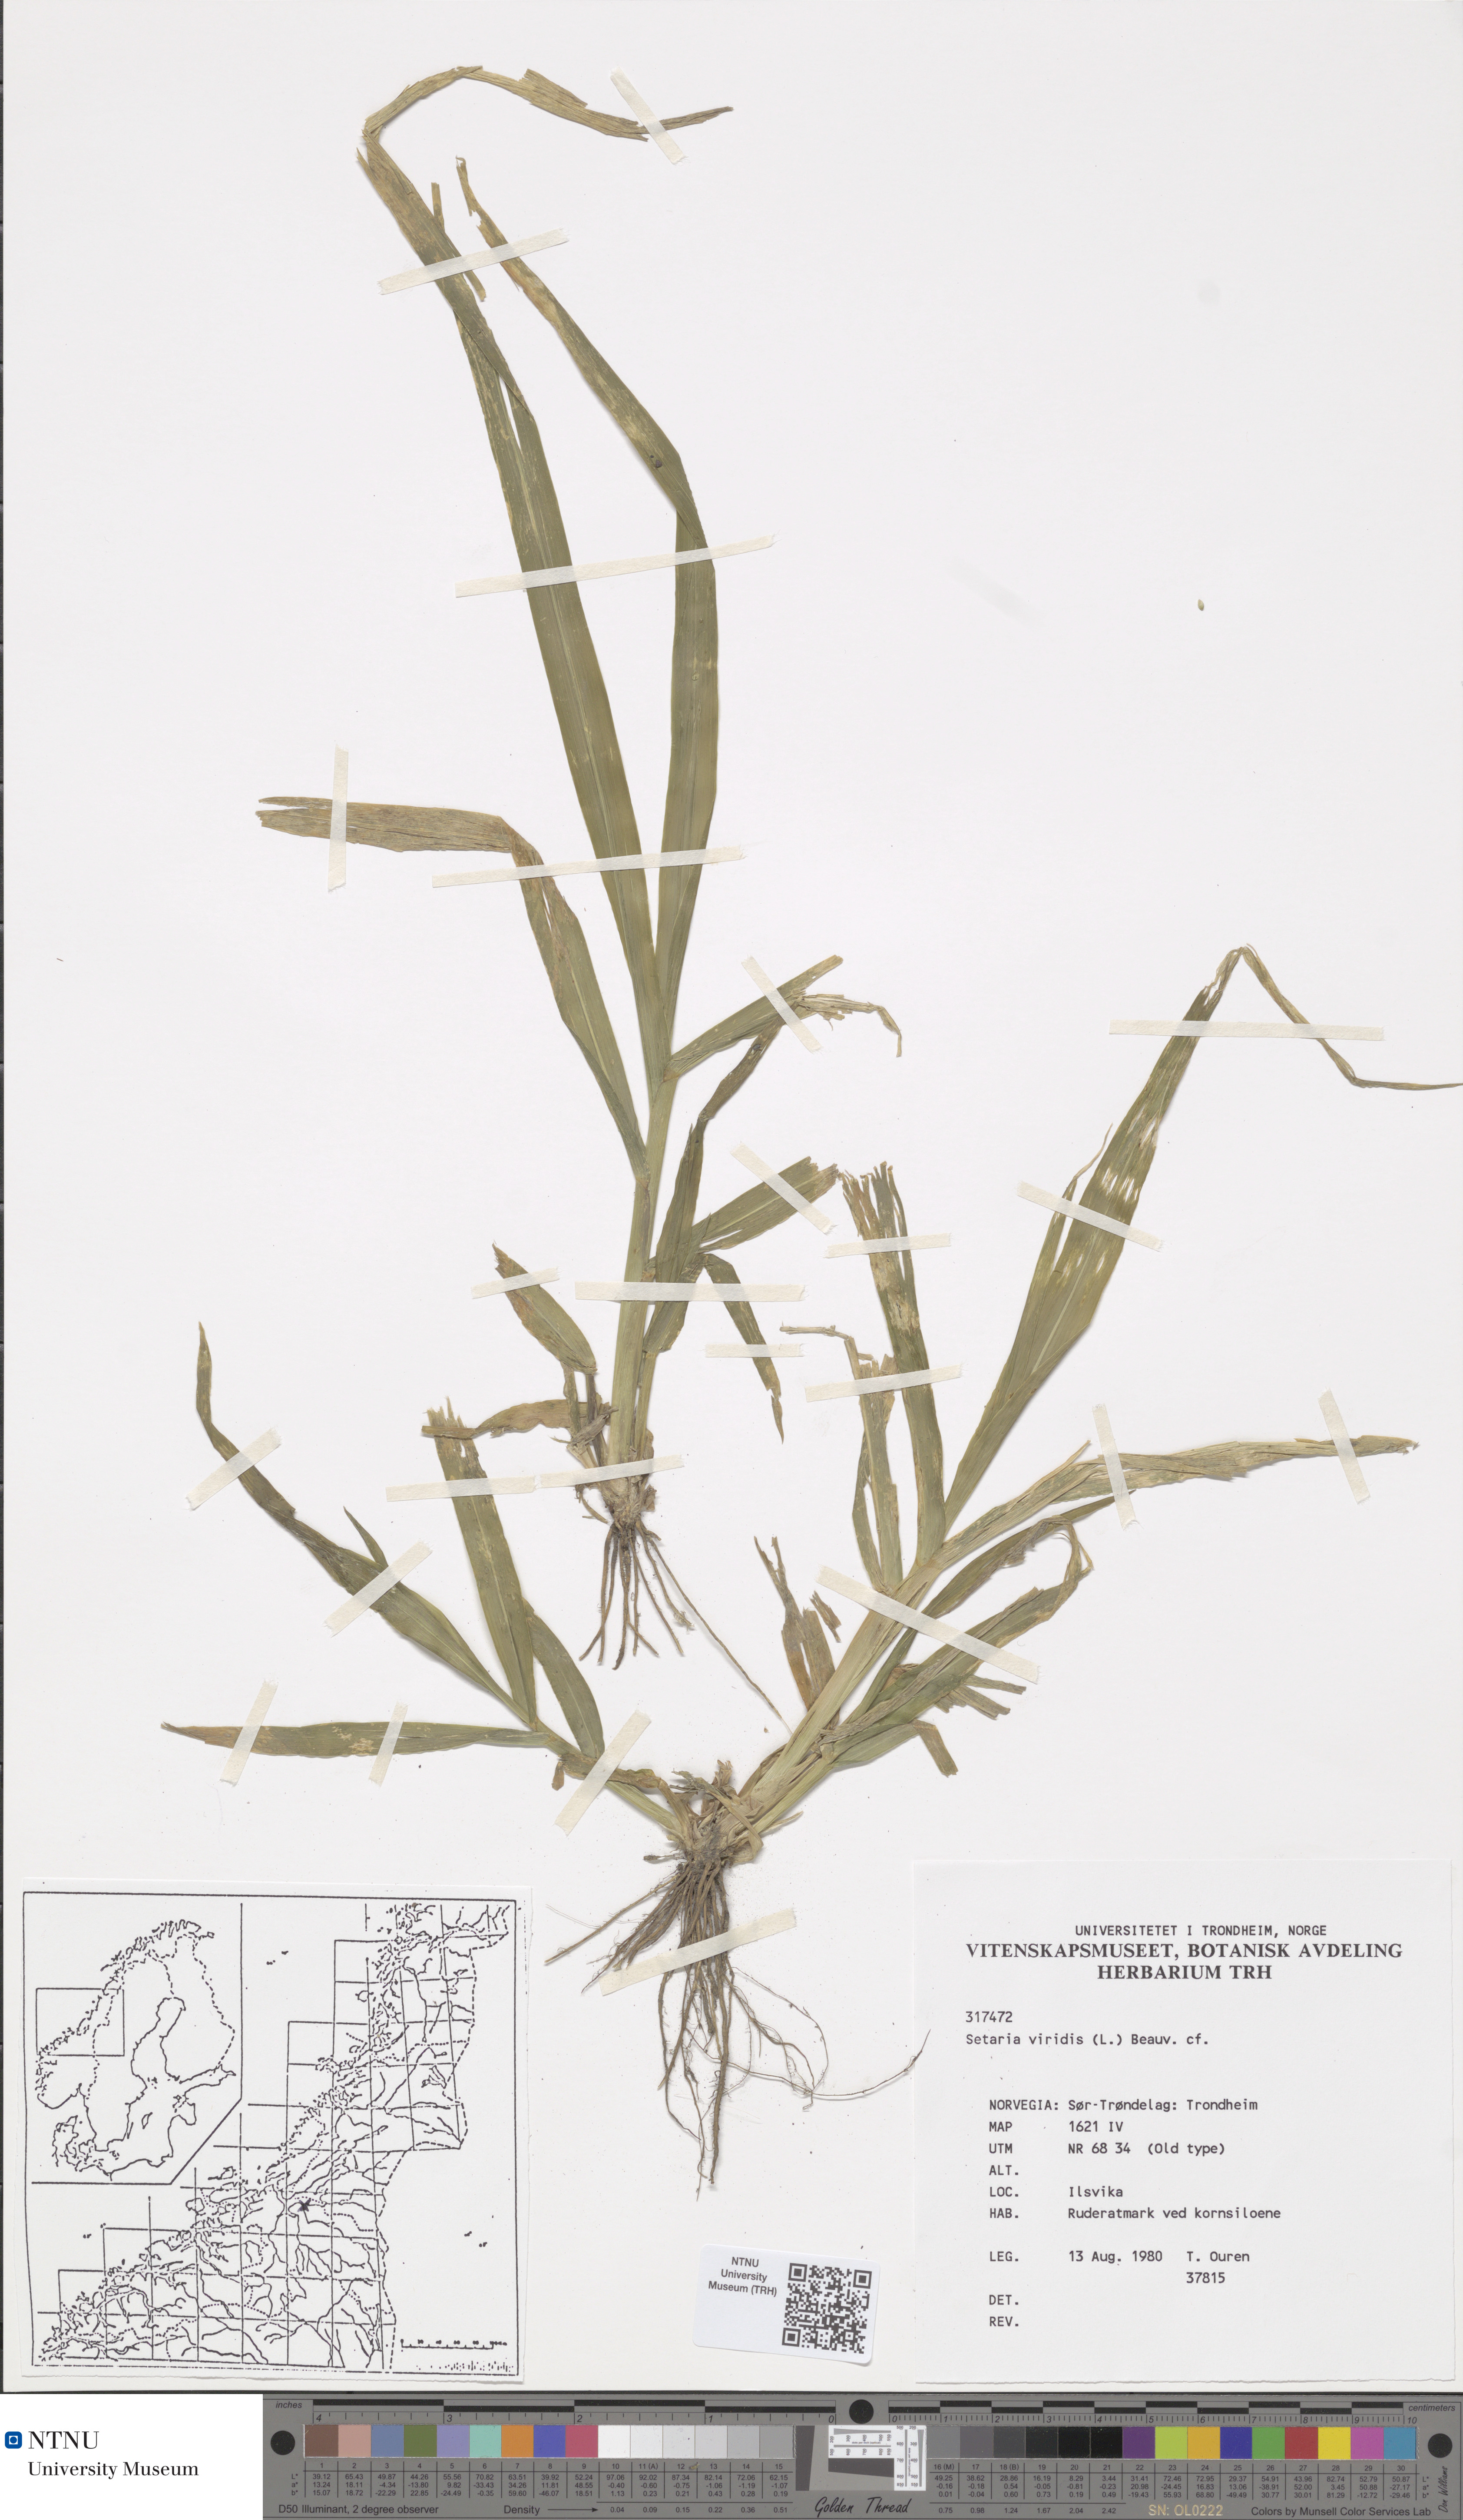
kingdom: Plantae
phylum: Tracheophyta
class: Liliopsida
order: Poales
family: Poaceae
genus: Setaria
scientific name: Setaria viridis
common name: Green bristlegrass
